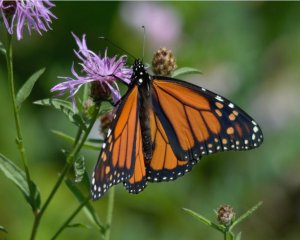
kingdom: Animalia
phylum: Arthropoda
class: Insecta
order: Lepidoptera
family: Nymphalidae
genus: Danaus
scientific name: Danaus plexippus
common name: Monarch
